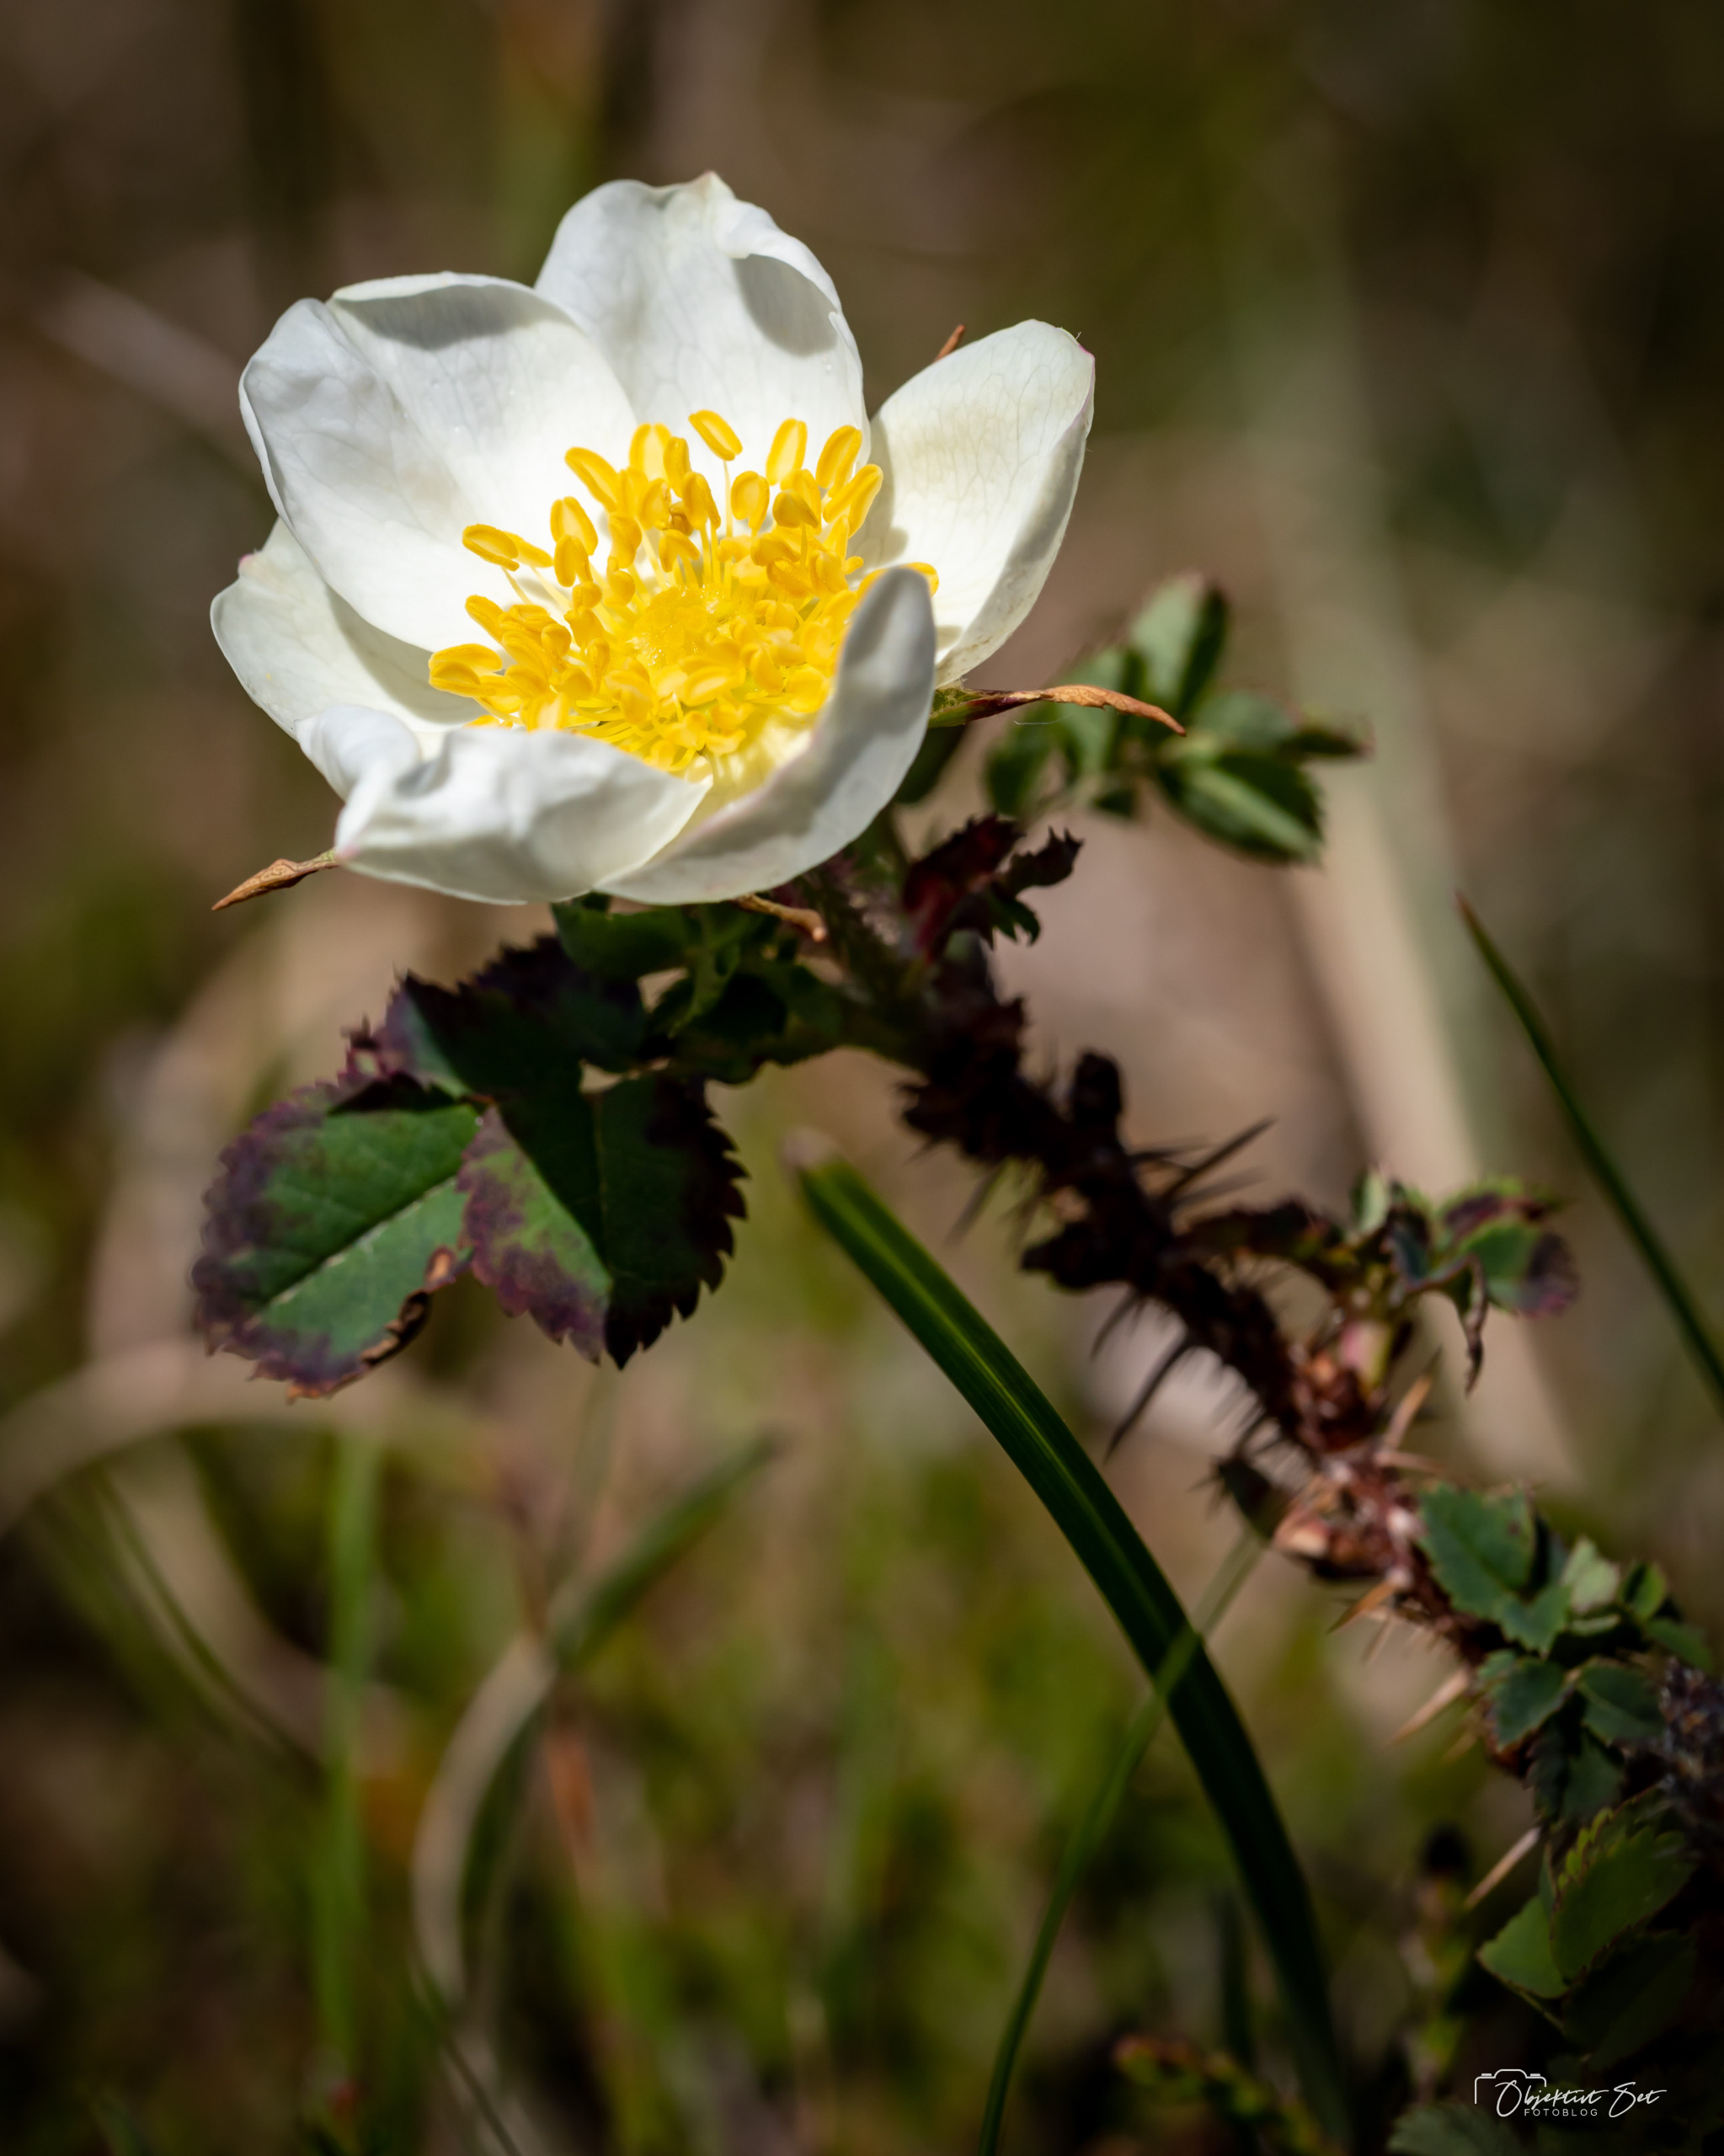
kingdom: Plantae
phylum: Tracheophyta
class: Magnoliopsida
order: Rosales
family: Rosaceae
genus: Rosa
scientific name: Rosa spinosissima
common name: Klit-rose
